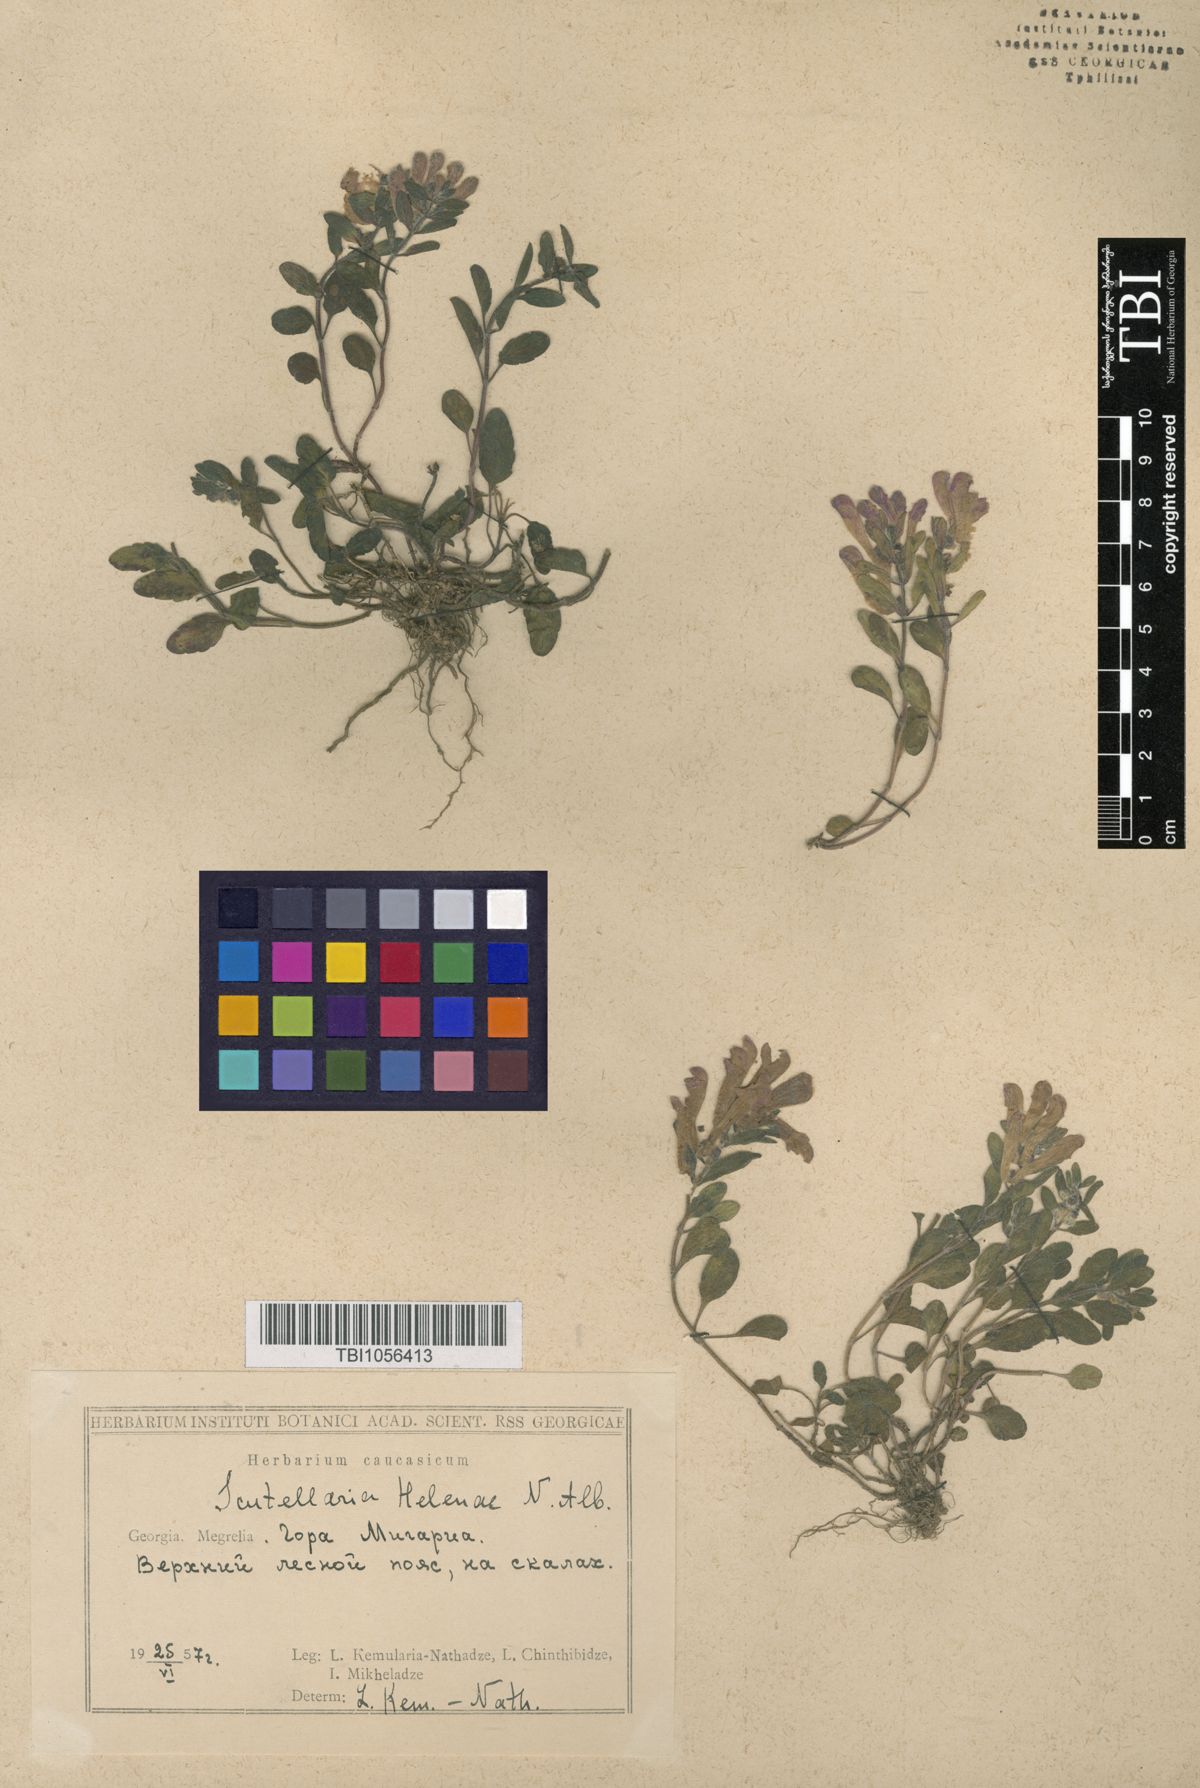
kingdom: Plantae
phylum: Tracheophyta
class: Magnoliopsida
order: Lamiales
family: Lamiaceae
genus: Scutellaria
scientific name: Scutellaria helenae
